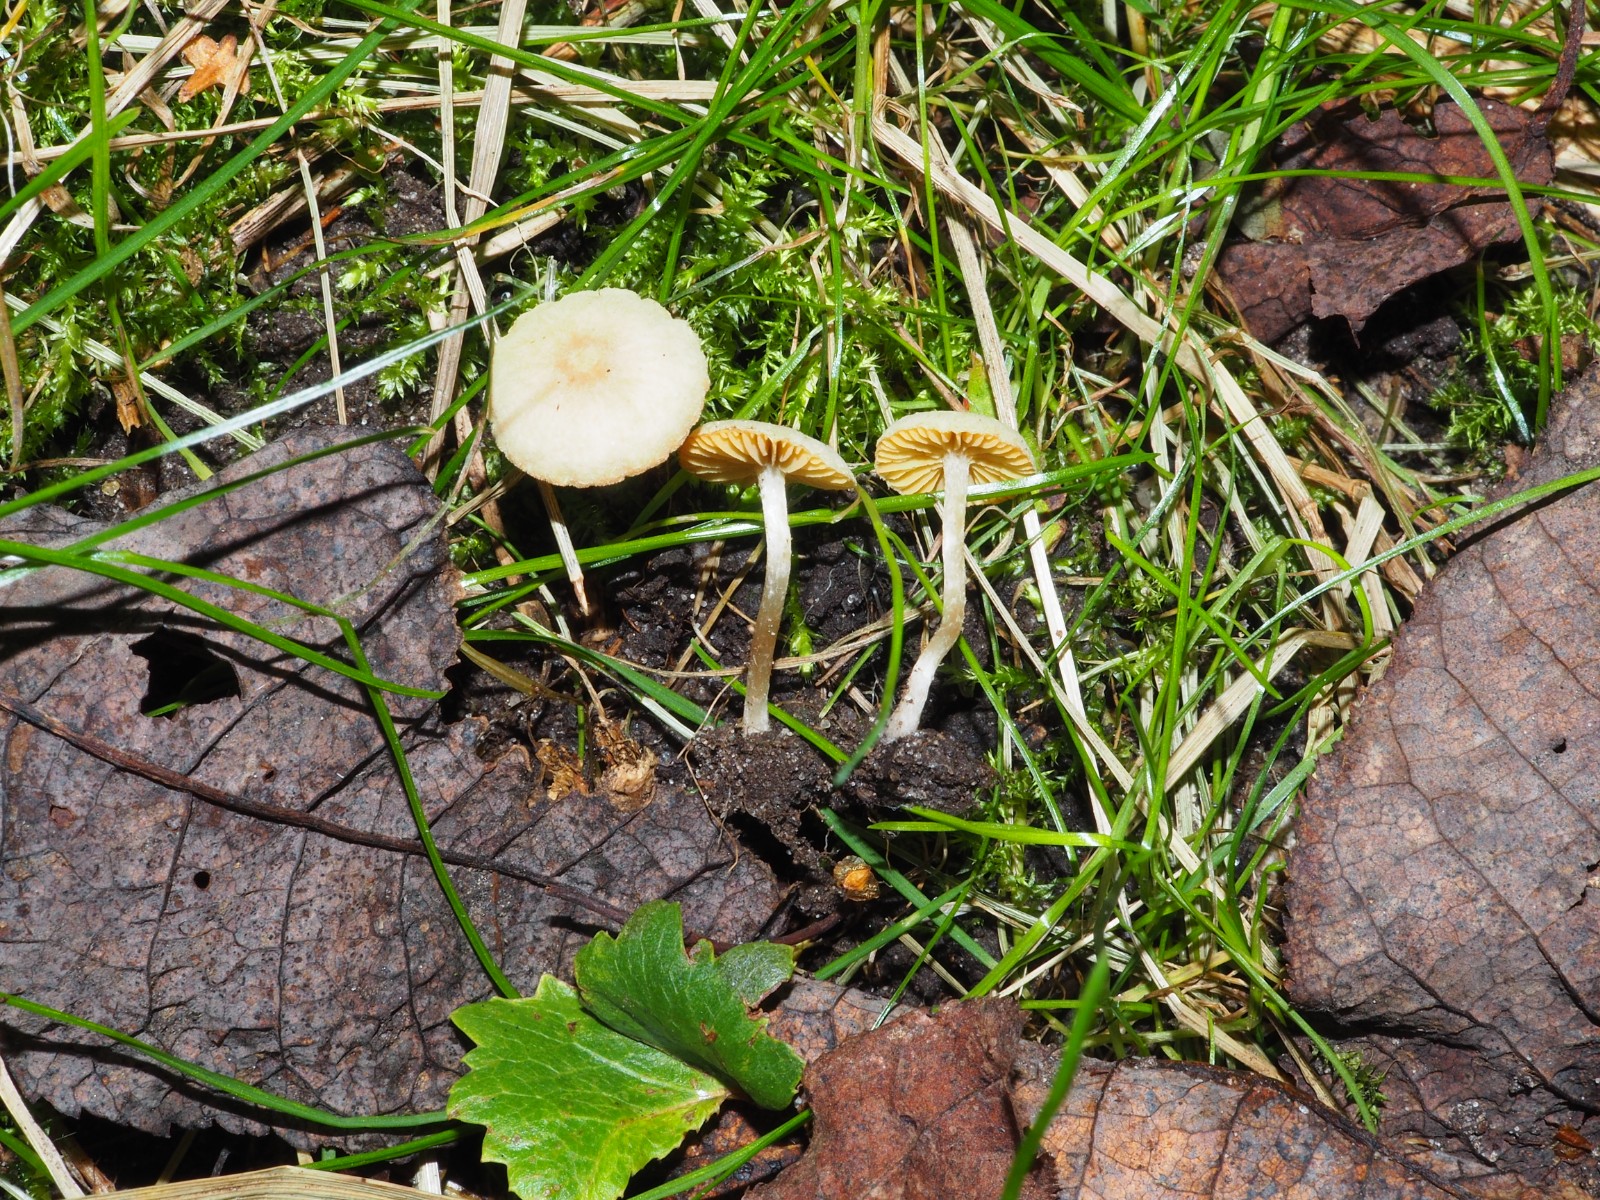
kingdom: Fungi
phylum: Basidiomycota
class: Agaricomycetes
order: Agaricales
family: Tubariaceae
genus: Tubaria
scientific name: Tubaria dispersa
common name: tjørne-fnughat
